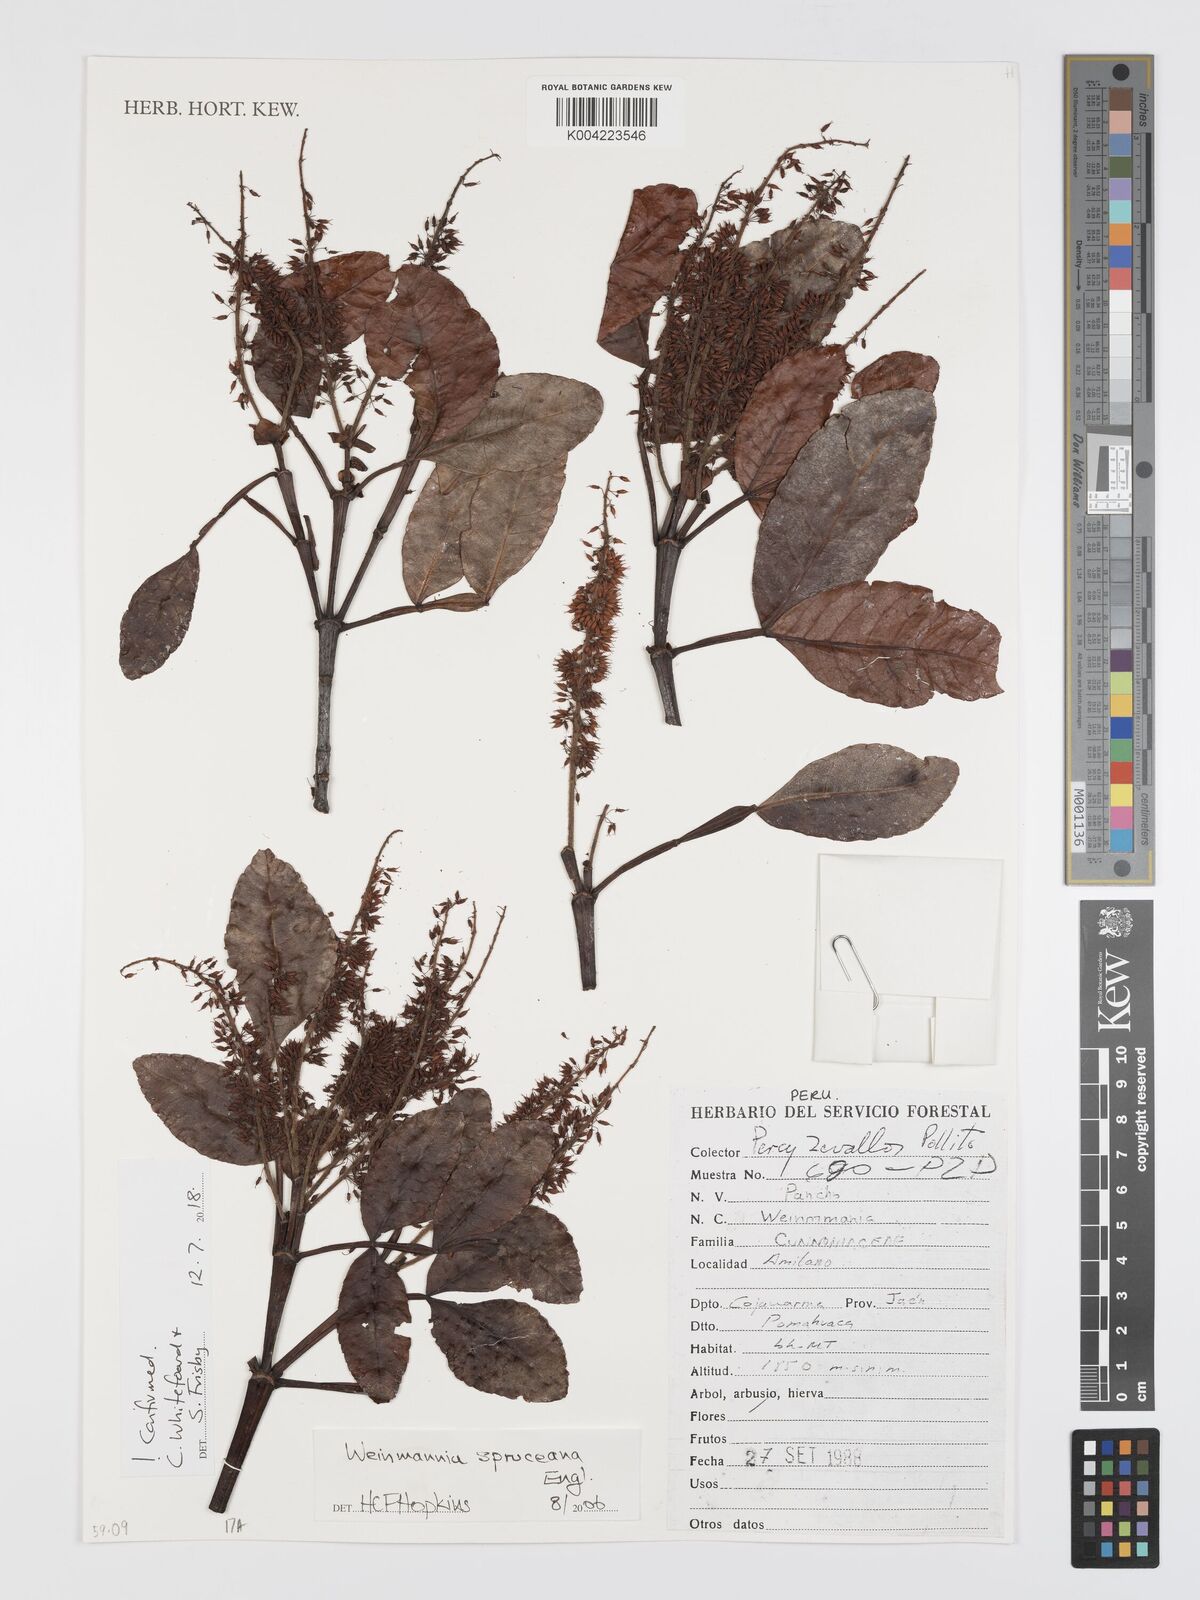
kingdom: Plantae
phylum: Tracheophyta
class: Magnoliopsida
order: Oxalidales
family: Cunoniaceae
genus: Weinmannia
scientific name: Weinmannia spruceana
